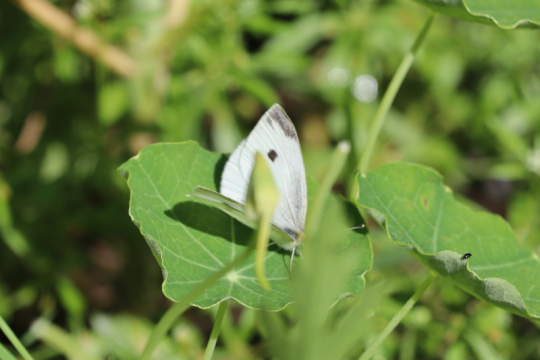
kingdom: Animalia
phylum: Arthropoda
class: Insecta
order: Lepidoptera
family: Pieridae
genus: Pieris
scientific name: Pieris rapae
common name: Cabbage White
